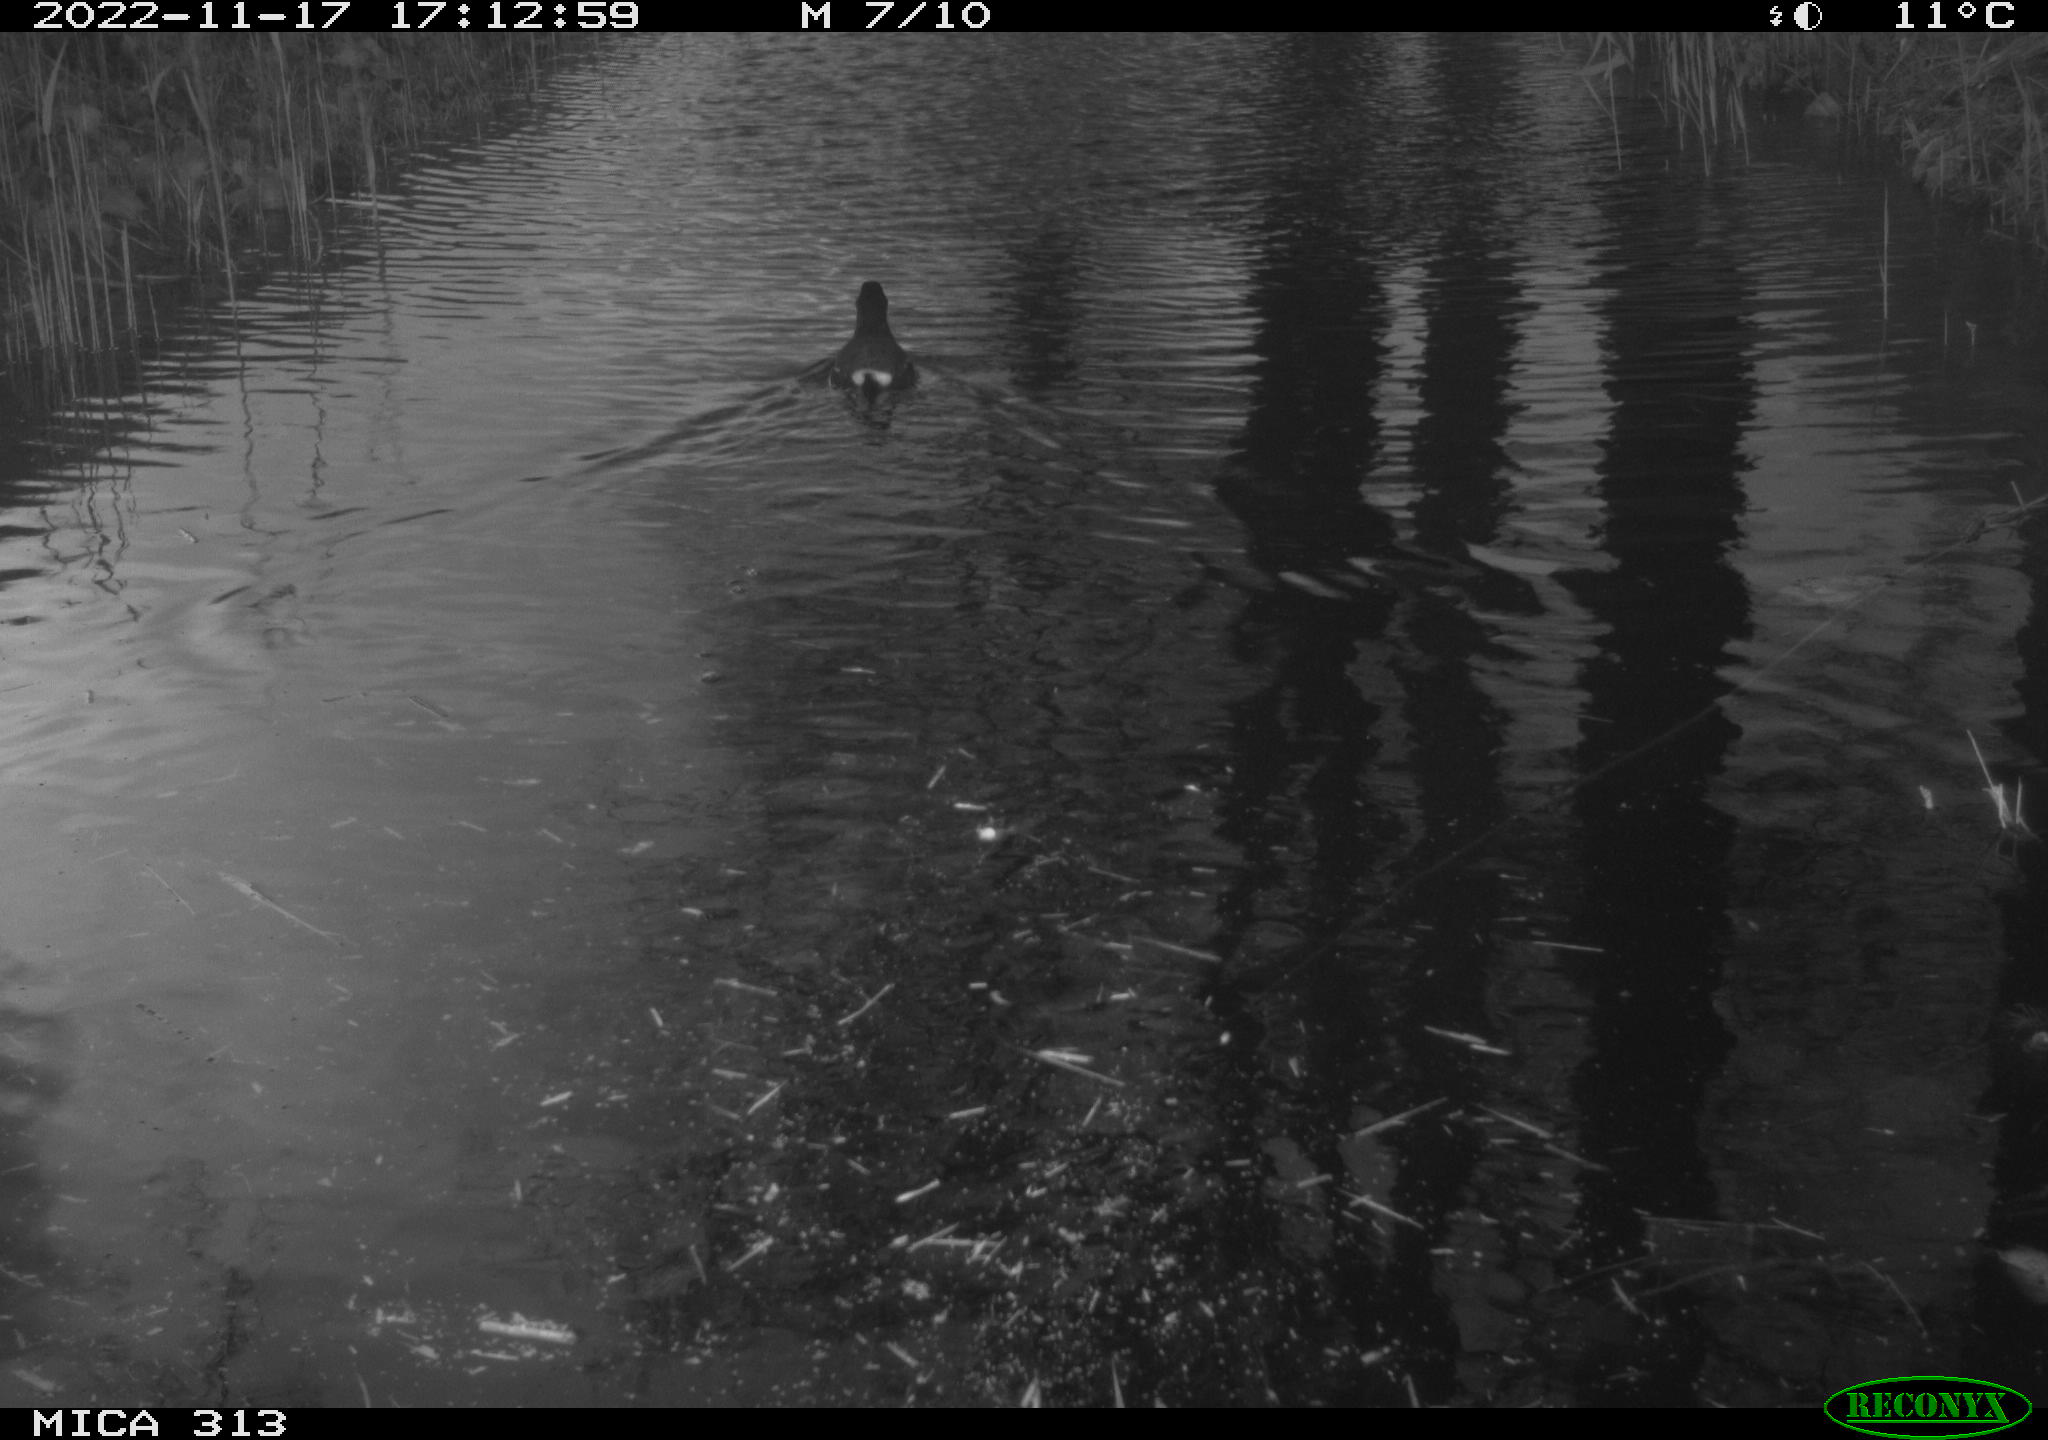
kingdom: Animalia
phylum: Chordata
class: Aves
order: Anseriformes
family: Anatidae
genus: Anas
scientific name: Anas
